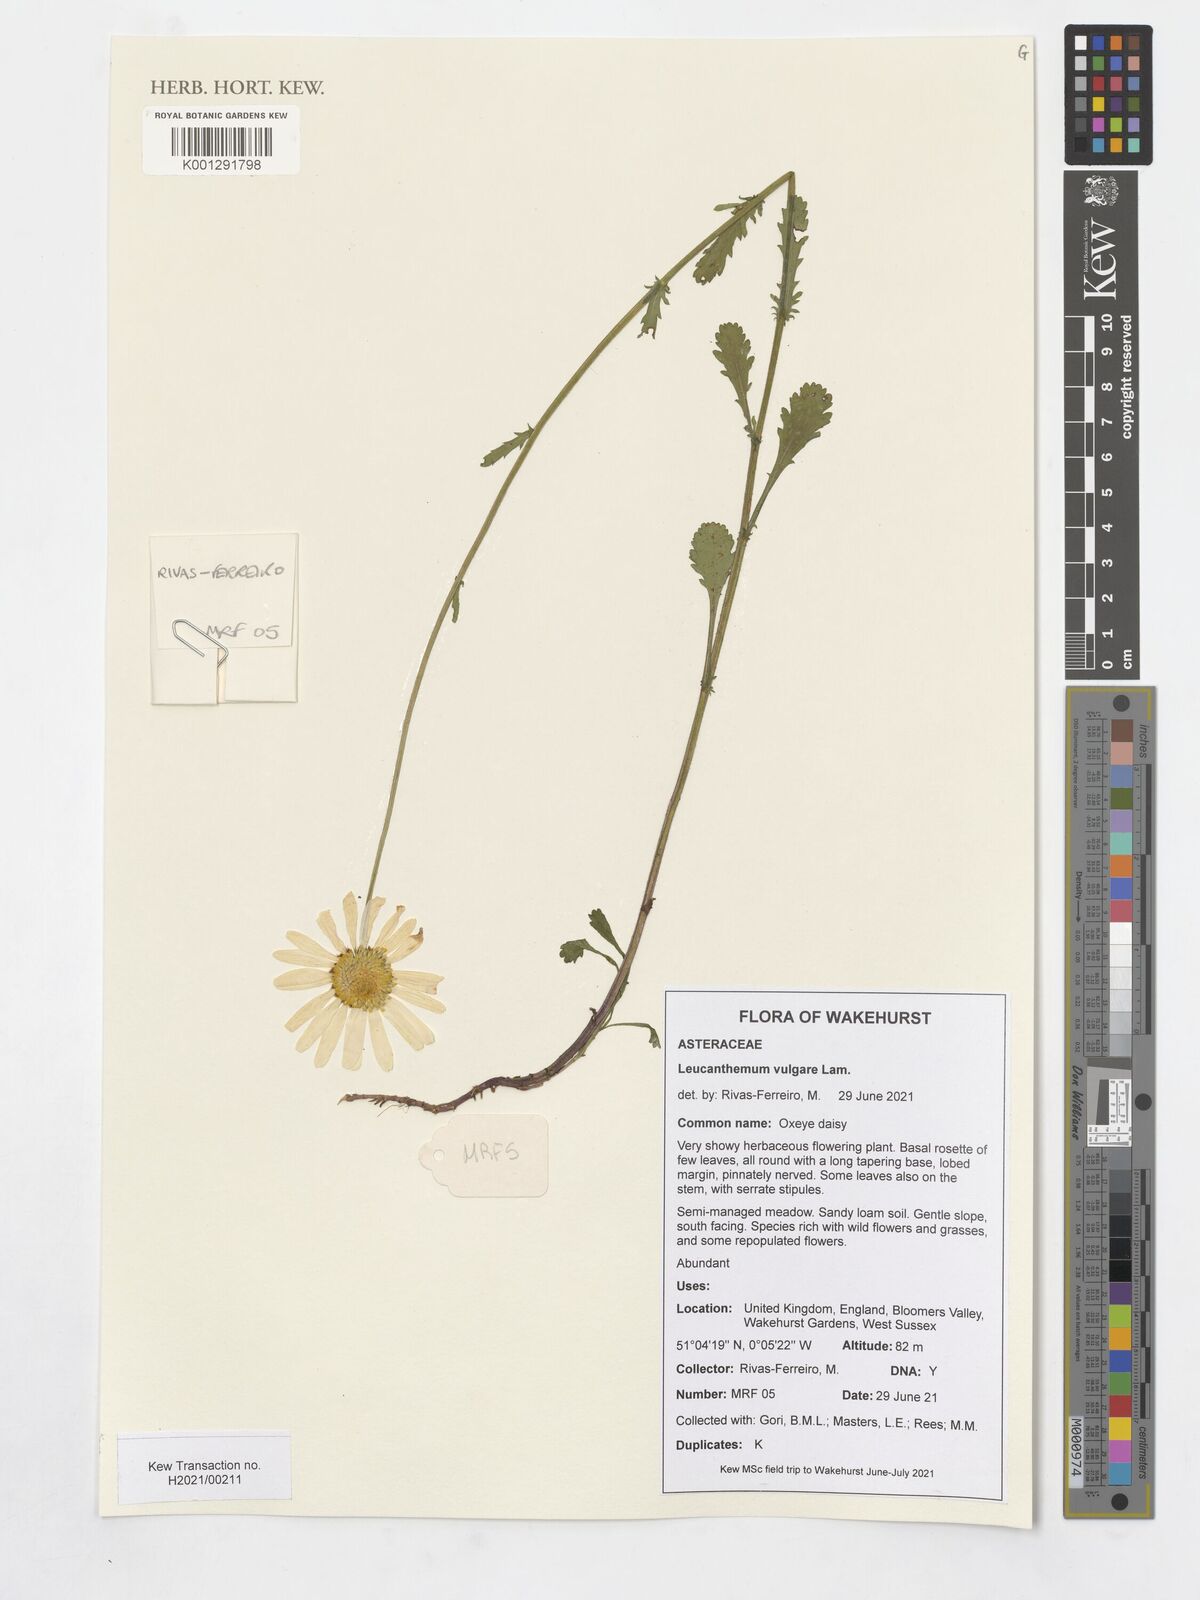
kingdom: Plantae
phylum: Tracheophyta
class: Magnoliopsida
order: Asterales
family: Asteraceae
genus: Leucanthemum
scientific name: Leucanthemum vulgare
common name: Oxeye daisy
